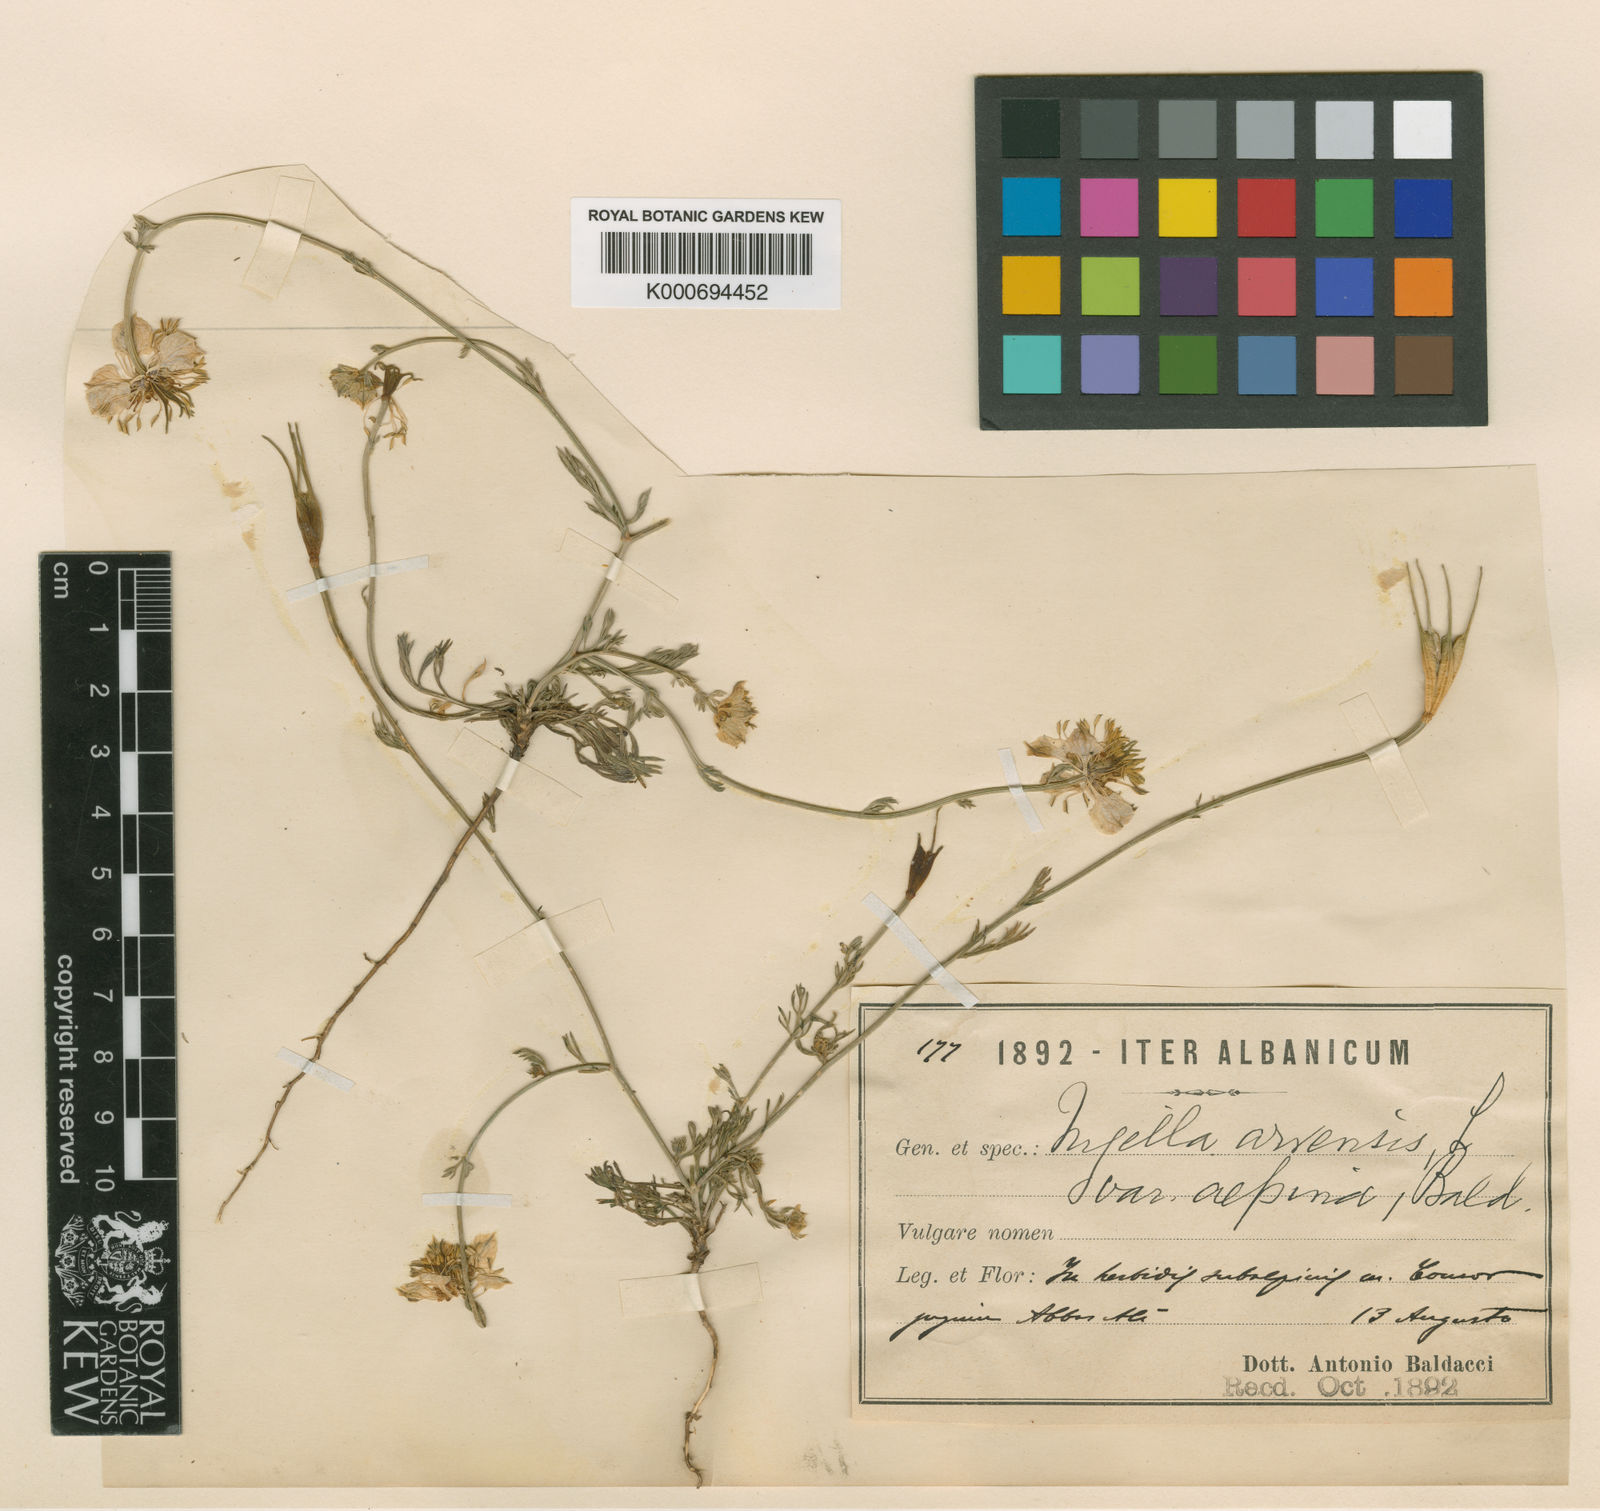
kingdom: Plantae
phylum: Tracheophyta
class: Magnoliopsida
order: Ranunculales
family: Ranunculaceae
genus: Nigella
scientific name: Nigella arvensis
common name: Wild fennel-flower
